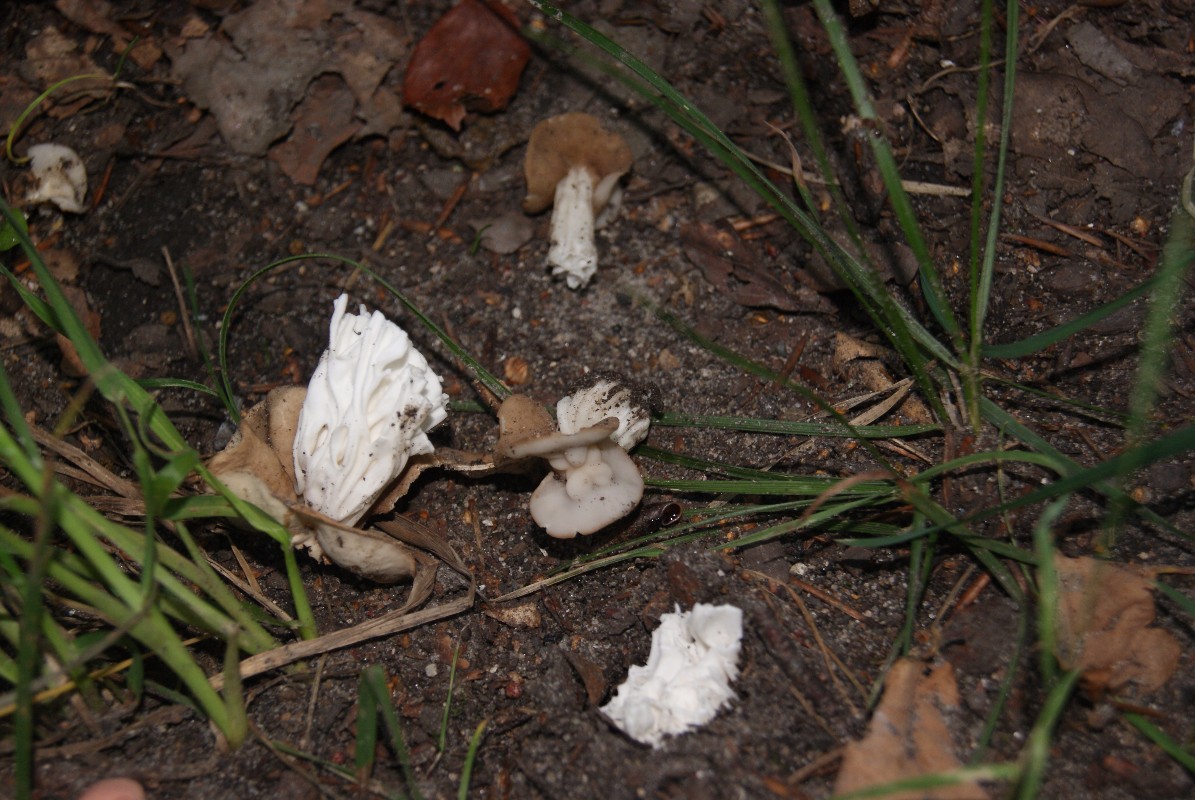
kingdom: Fungi
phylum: Ascomycota
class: Pezizomycetes
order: Pezizales
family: Helvellaceae
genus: Helvella
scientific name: Helvella crispa
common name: kruset foldhat
